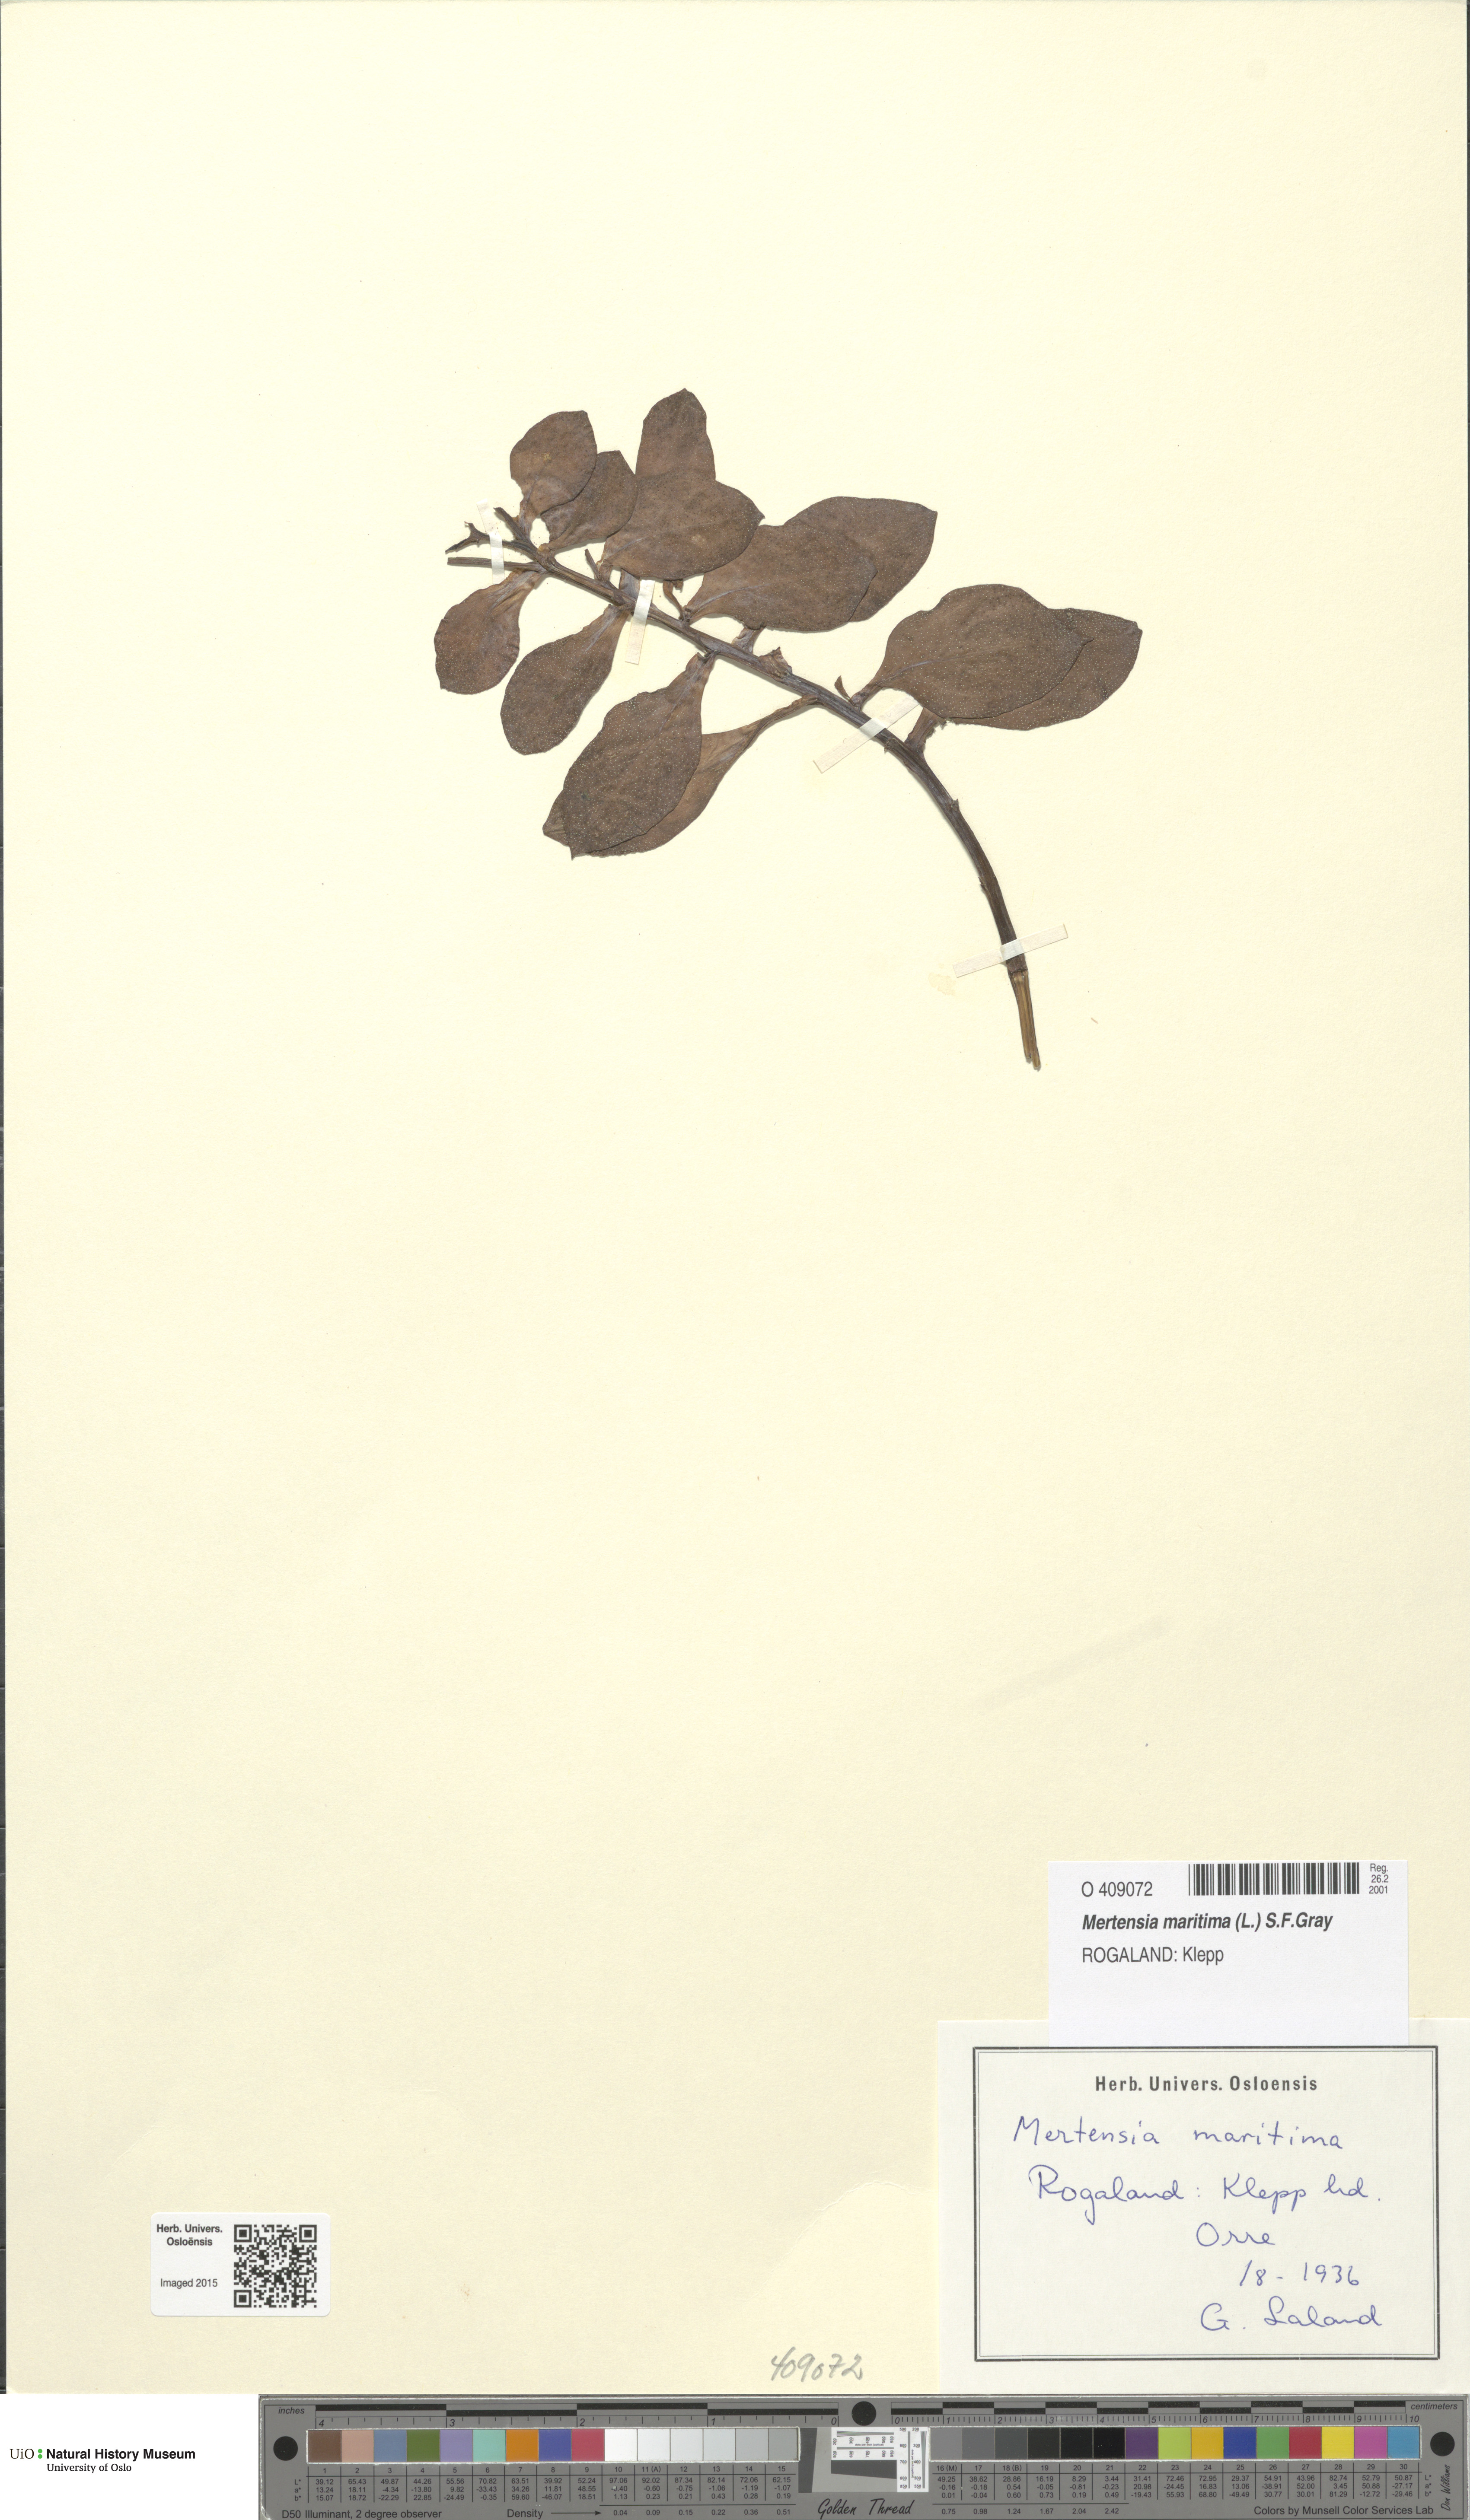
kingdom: Plantae
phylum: Tracheophyta
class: Magnoliopsida
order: Boraginales
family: Boraginaceae
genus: Mertensia
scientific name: Mertensia maritima
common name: Oysterplant
